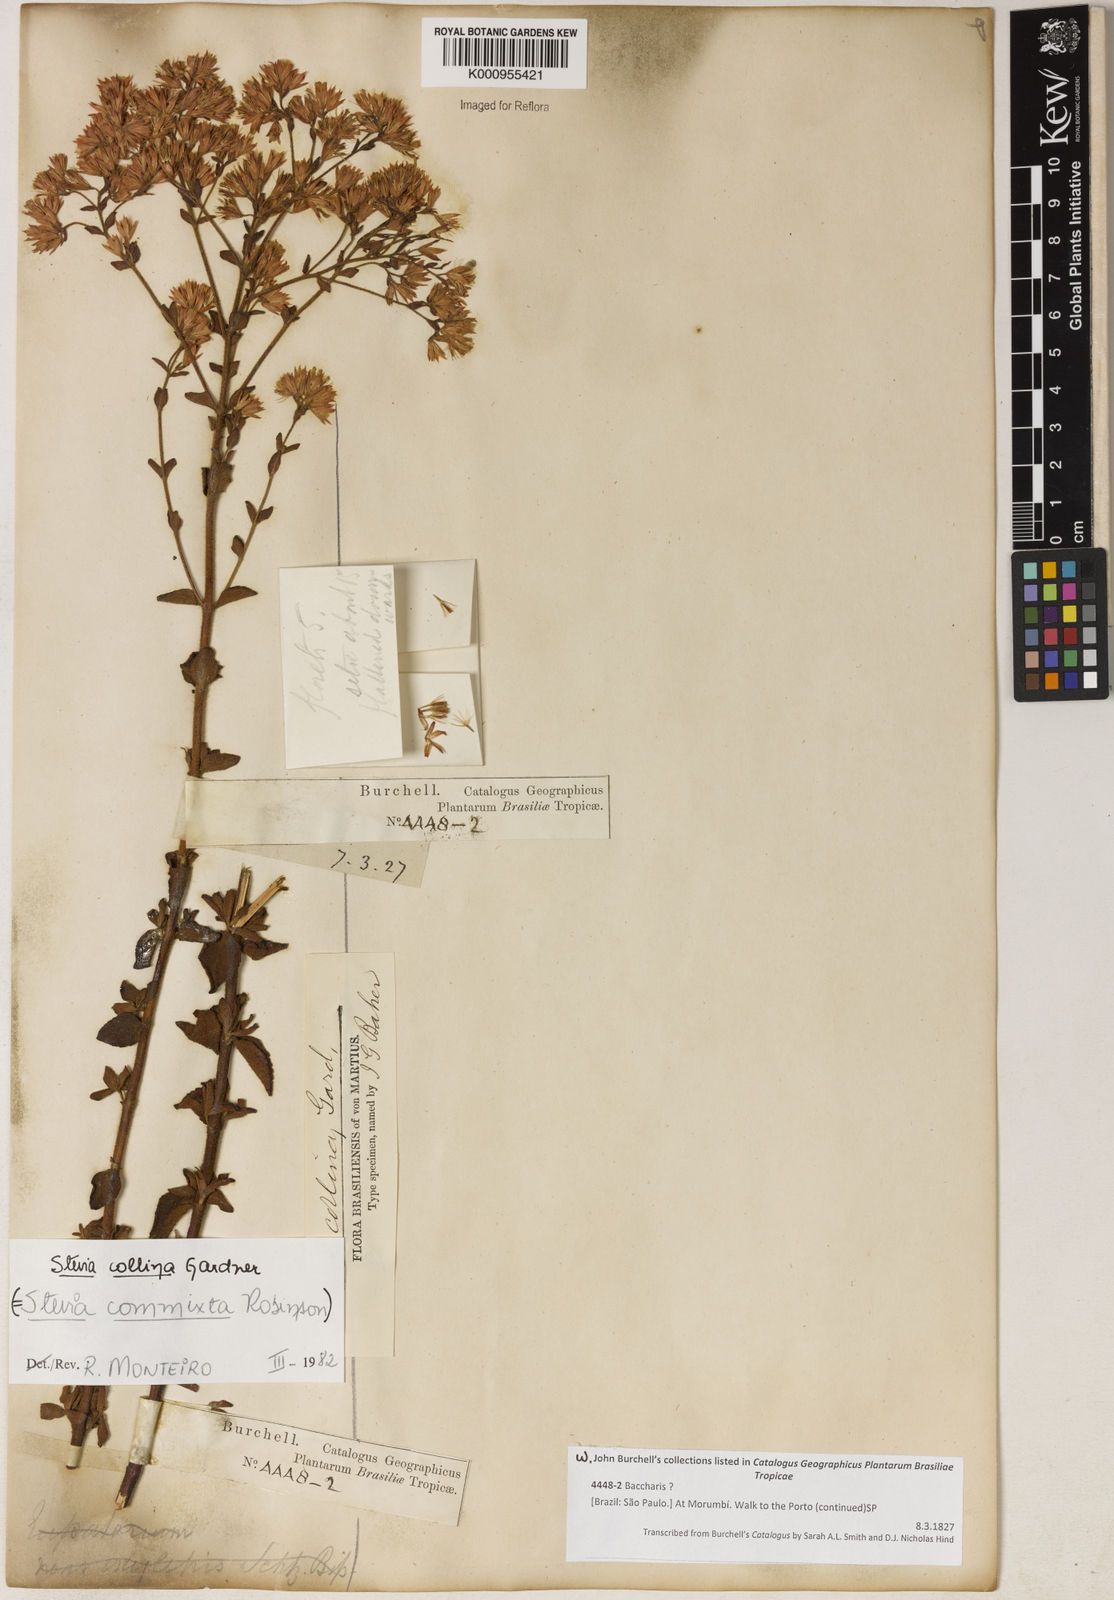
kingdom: Plantae
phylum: Tracheophyta
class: Magnoliopsida
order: Asterales
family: Asteraceae
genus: Stevia
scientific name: Stevia collina
